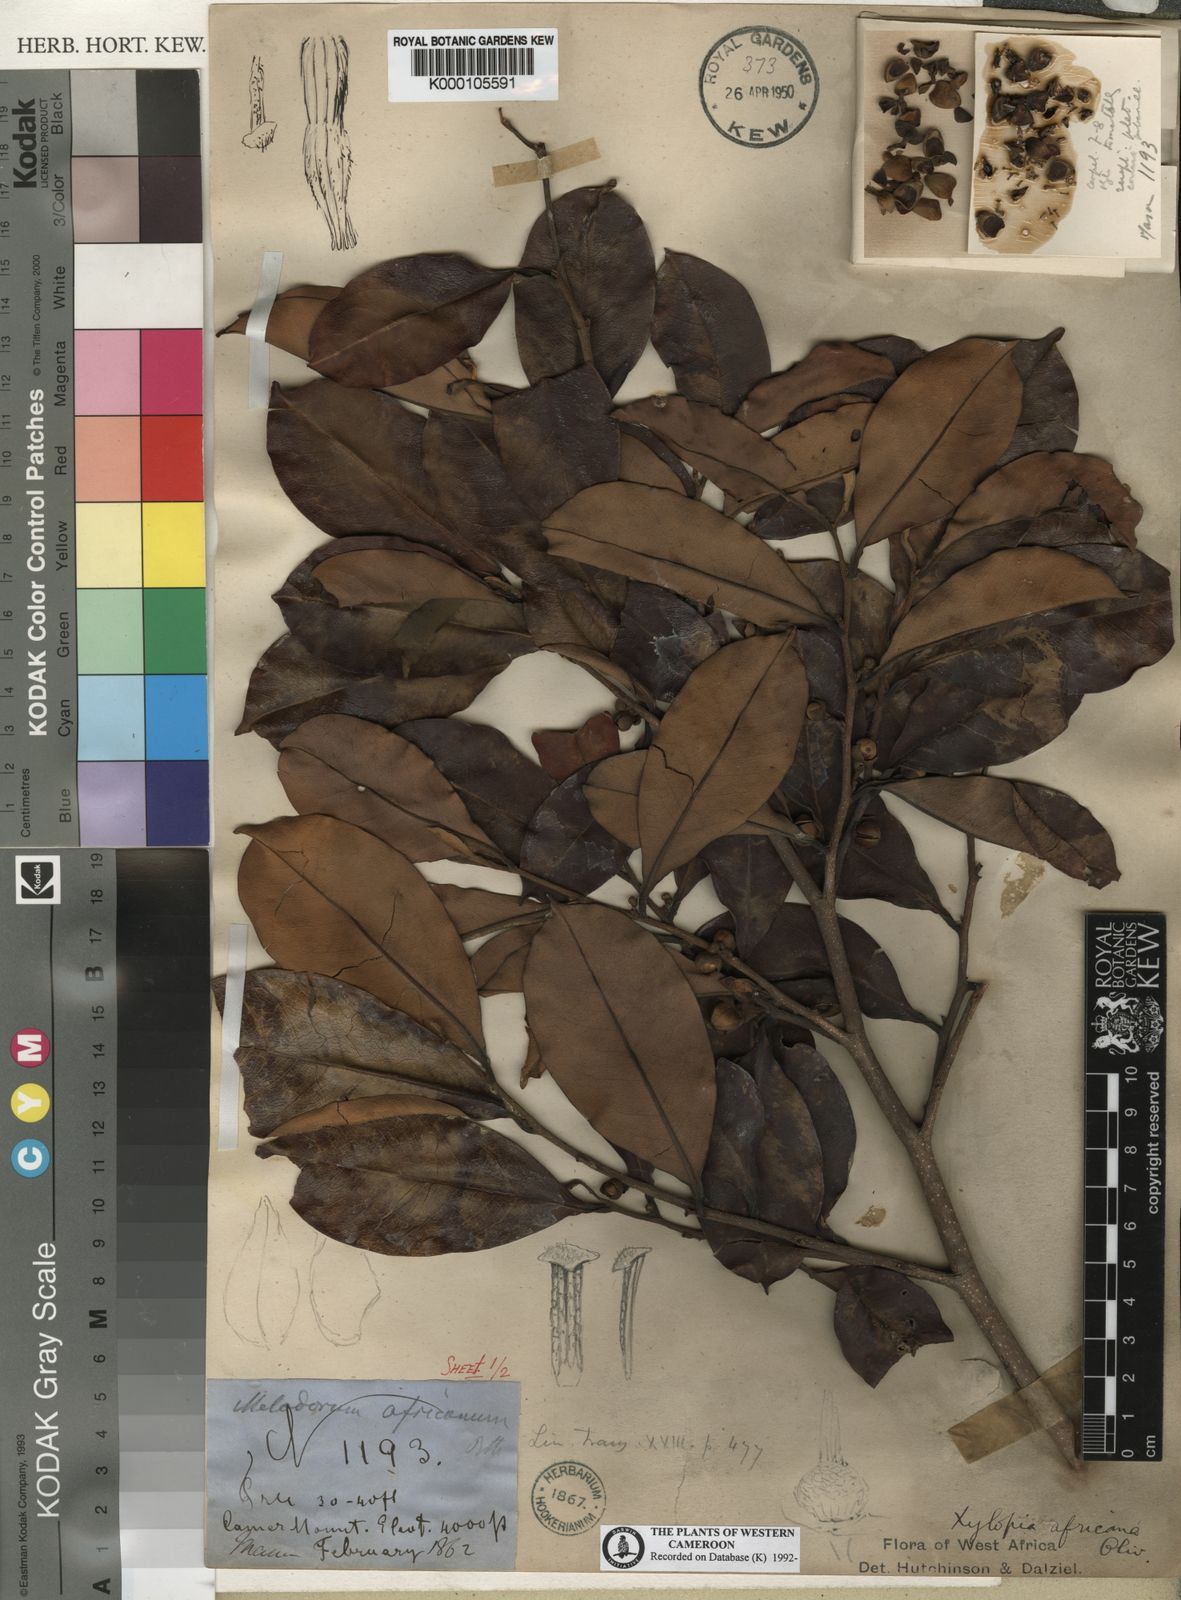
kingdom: Plantae
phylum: Tracheophyta
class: Magnoliopsida
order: Magnoliales
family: Annonaceae
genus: Xylopia
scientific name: Xylopia africana
